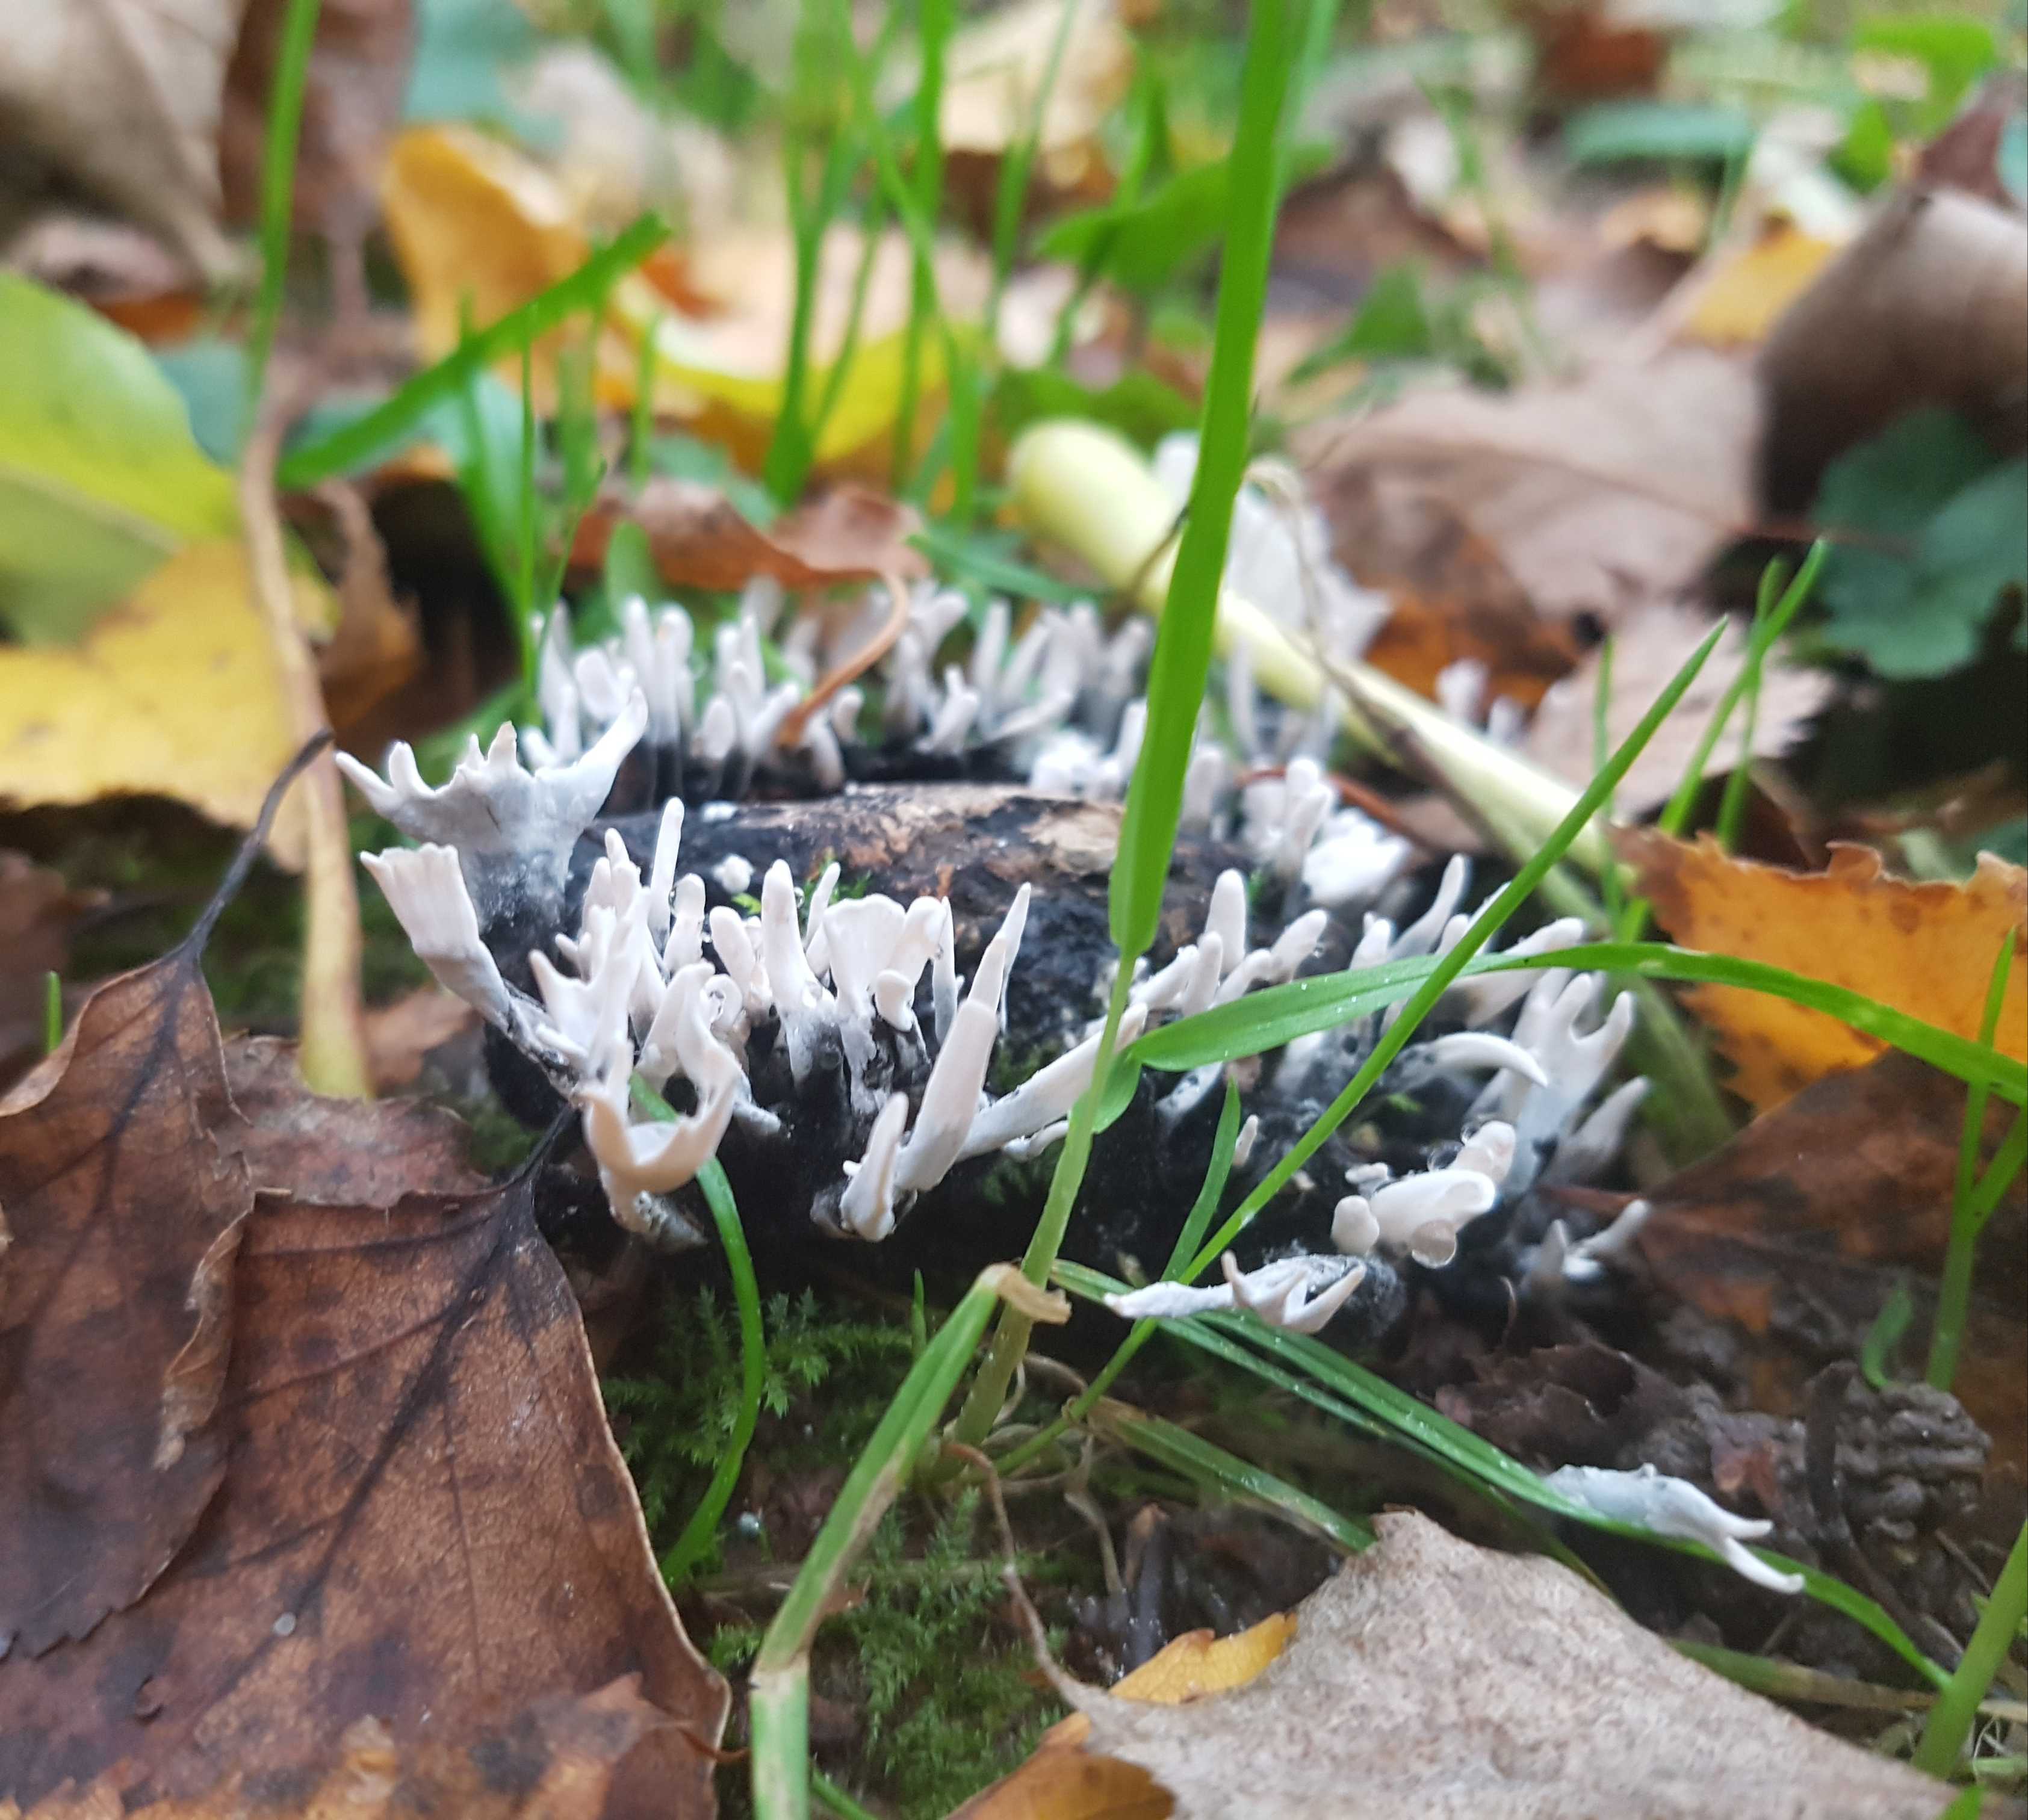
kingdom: Fungi
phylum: Ascomycota
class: Sordariomycetes
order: Xylariales
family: Xylariaceae
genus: Xylaria
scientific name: Xylaria hypoxylon
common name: grenet stødsvamp
